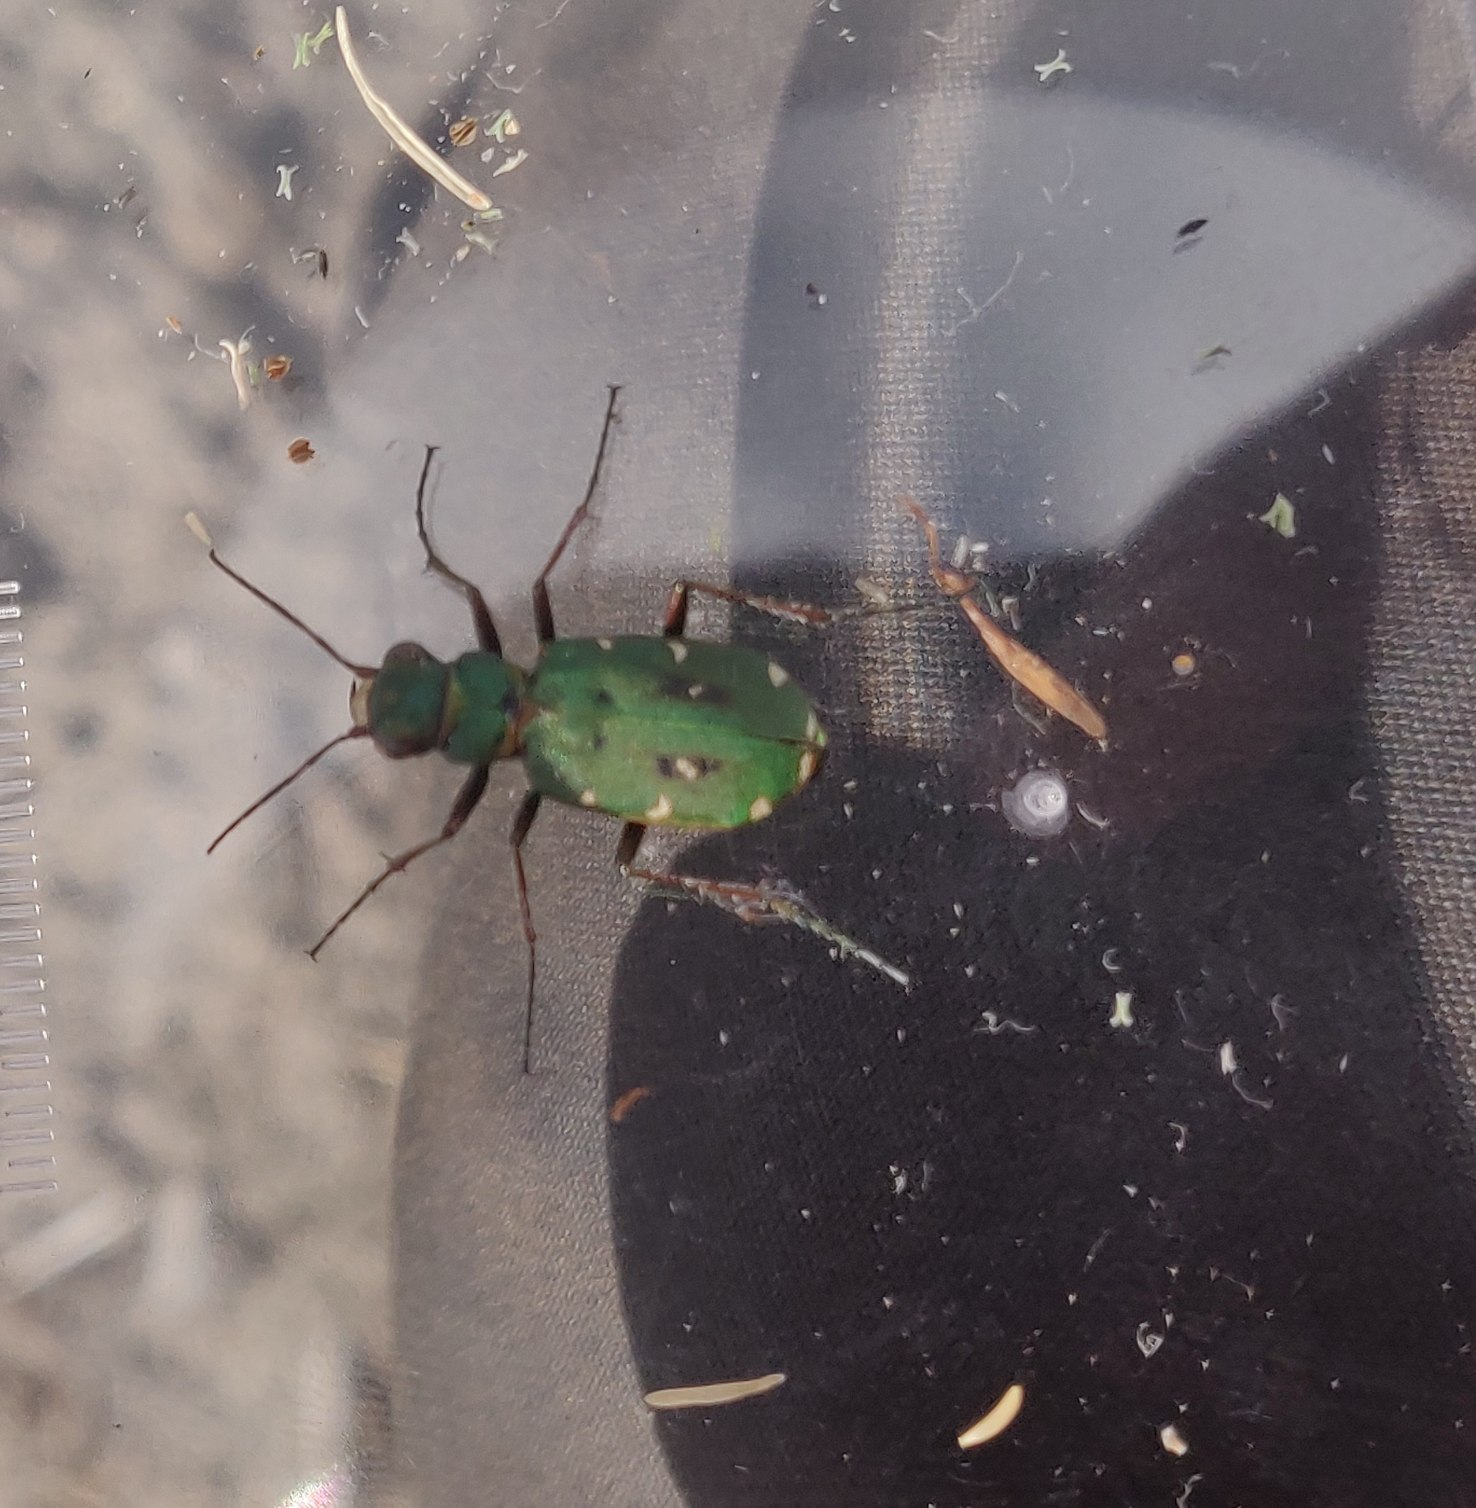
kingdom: Animalia
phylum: Arthropoda
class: Insecta
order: Coleoptera
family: Carabidae
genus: Cicindela
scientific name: Cicindela campestris
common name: Grøn sandspringer
